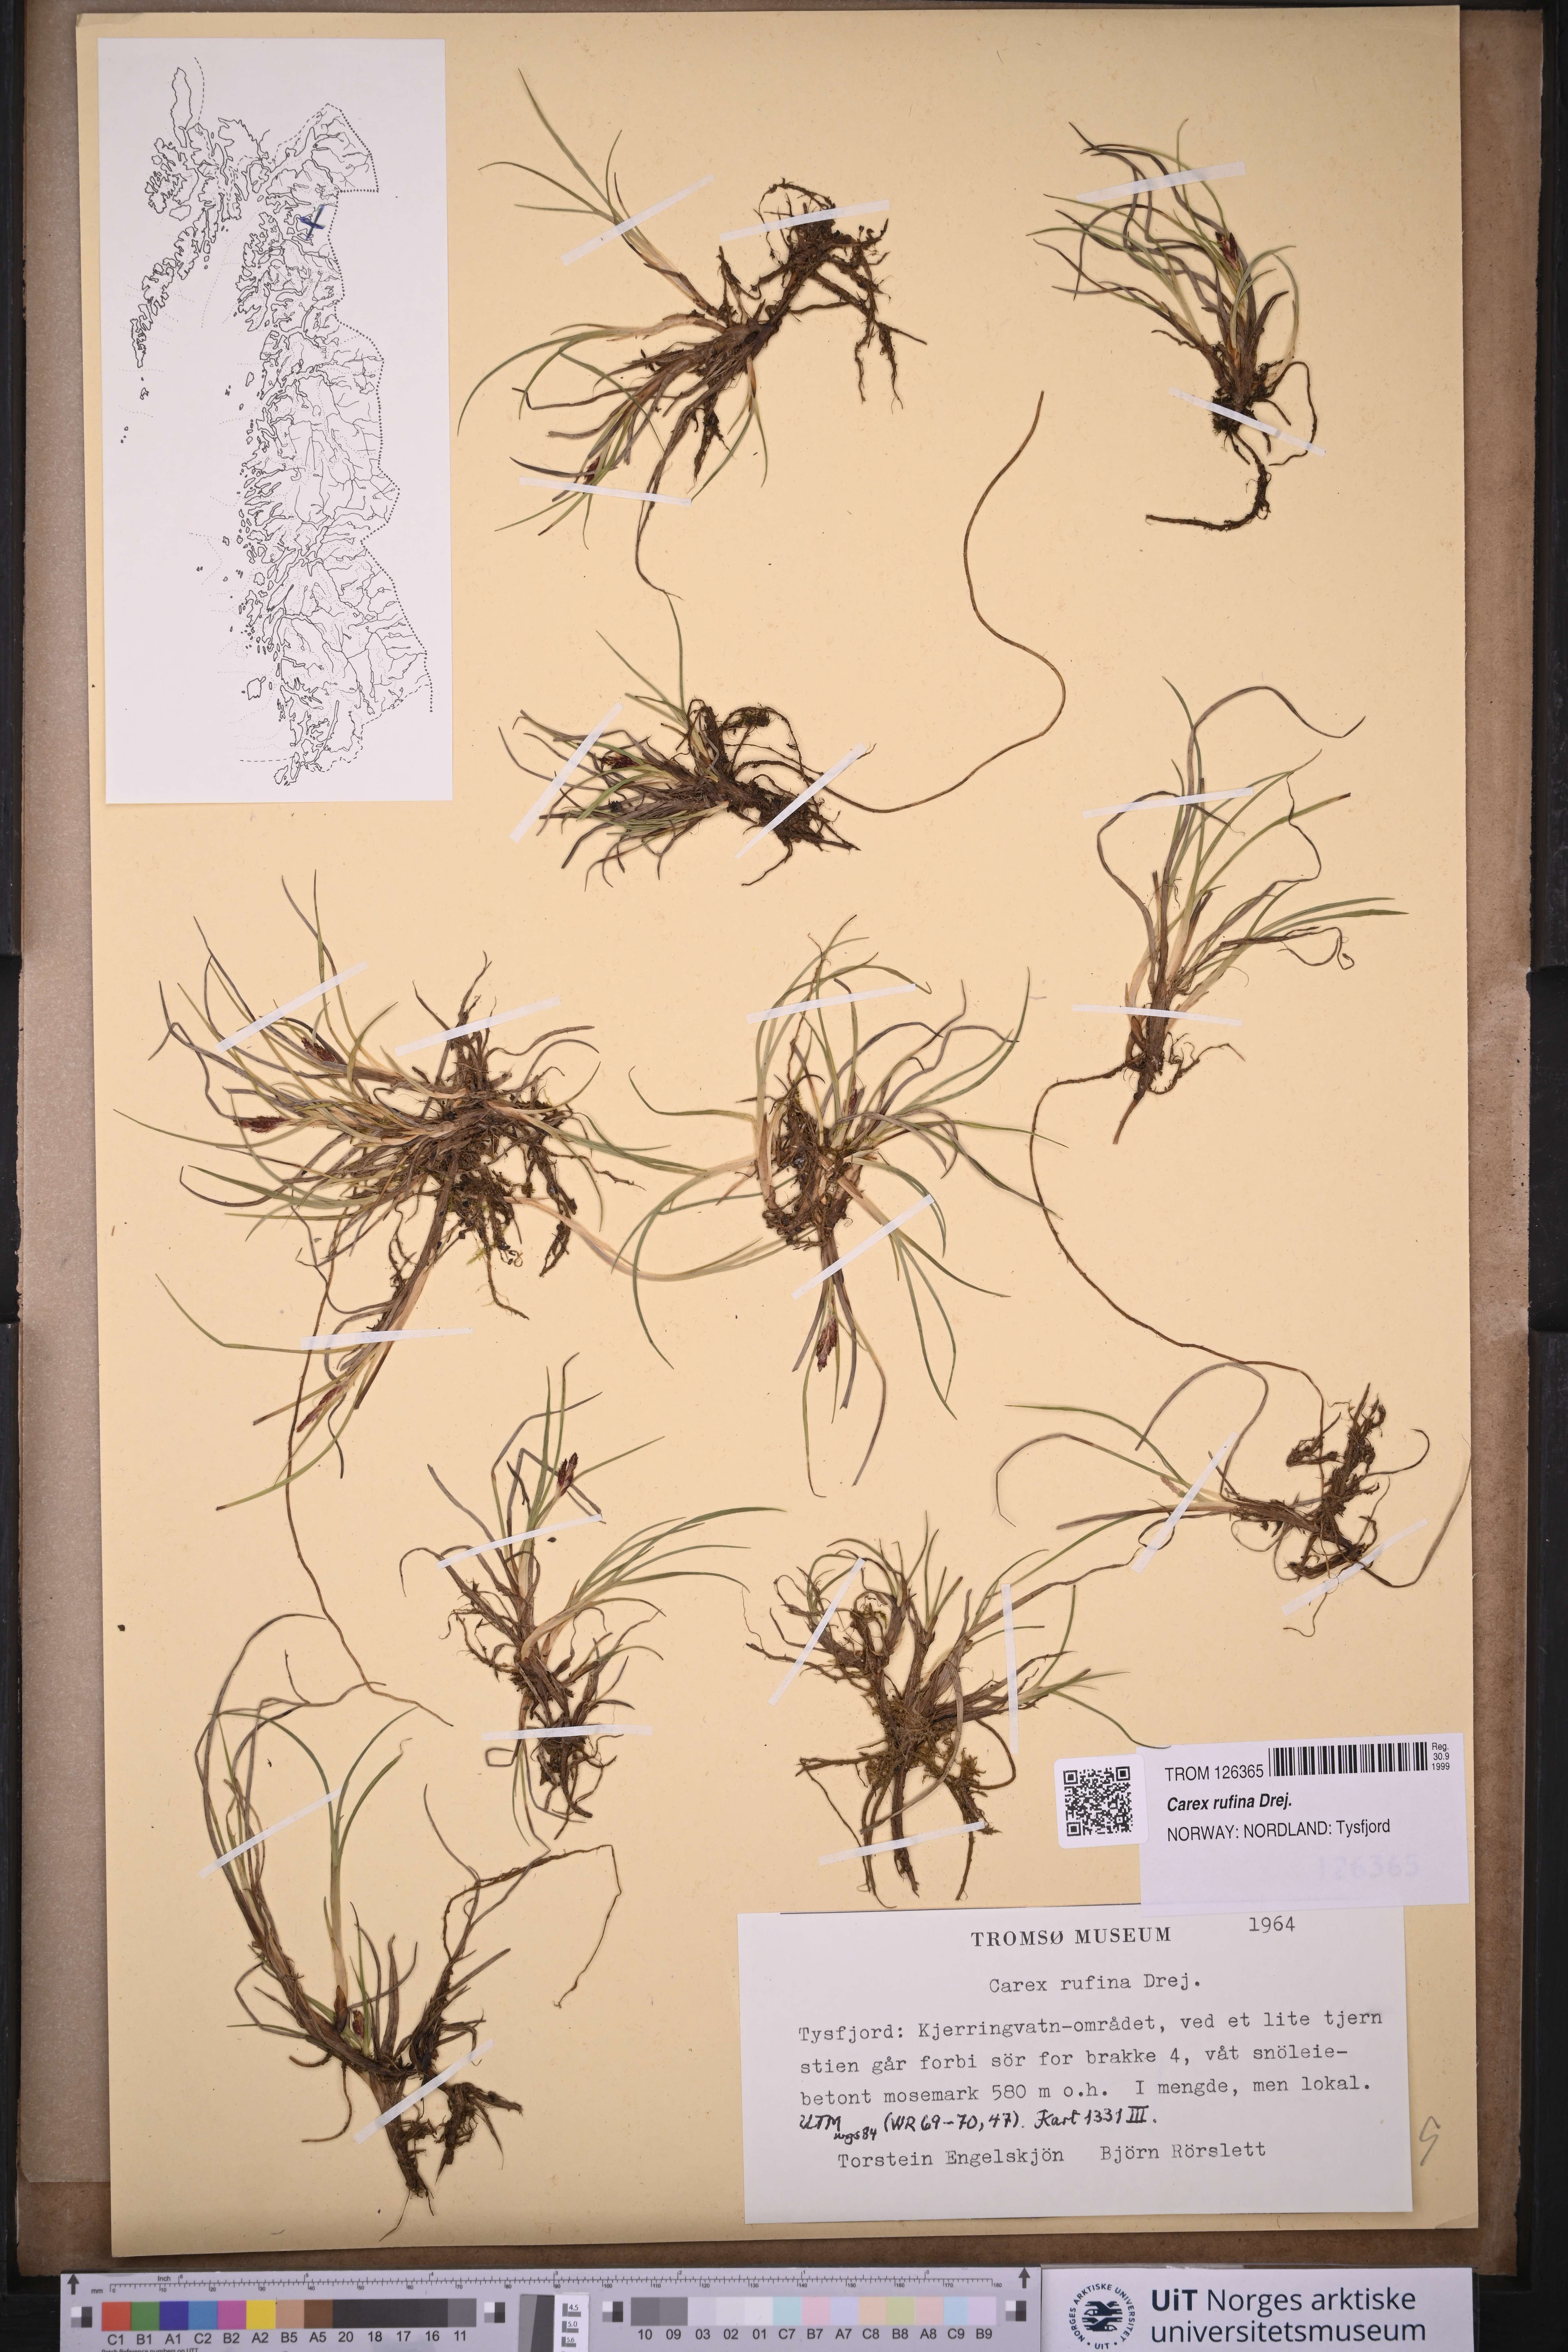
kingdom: Plantae
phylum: Tracheophyta
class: Liliopsida
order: Poales
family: Cyperaceae
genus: Carex
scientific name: Carex rufina
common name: Reddish sedge
